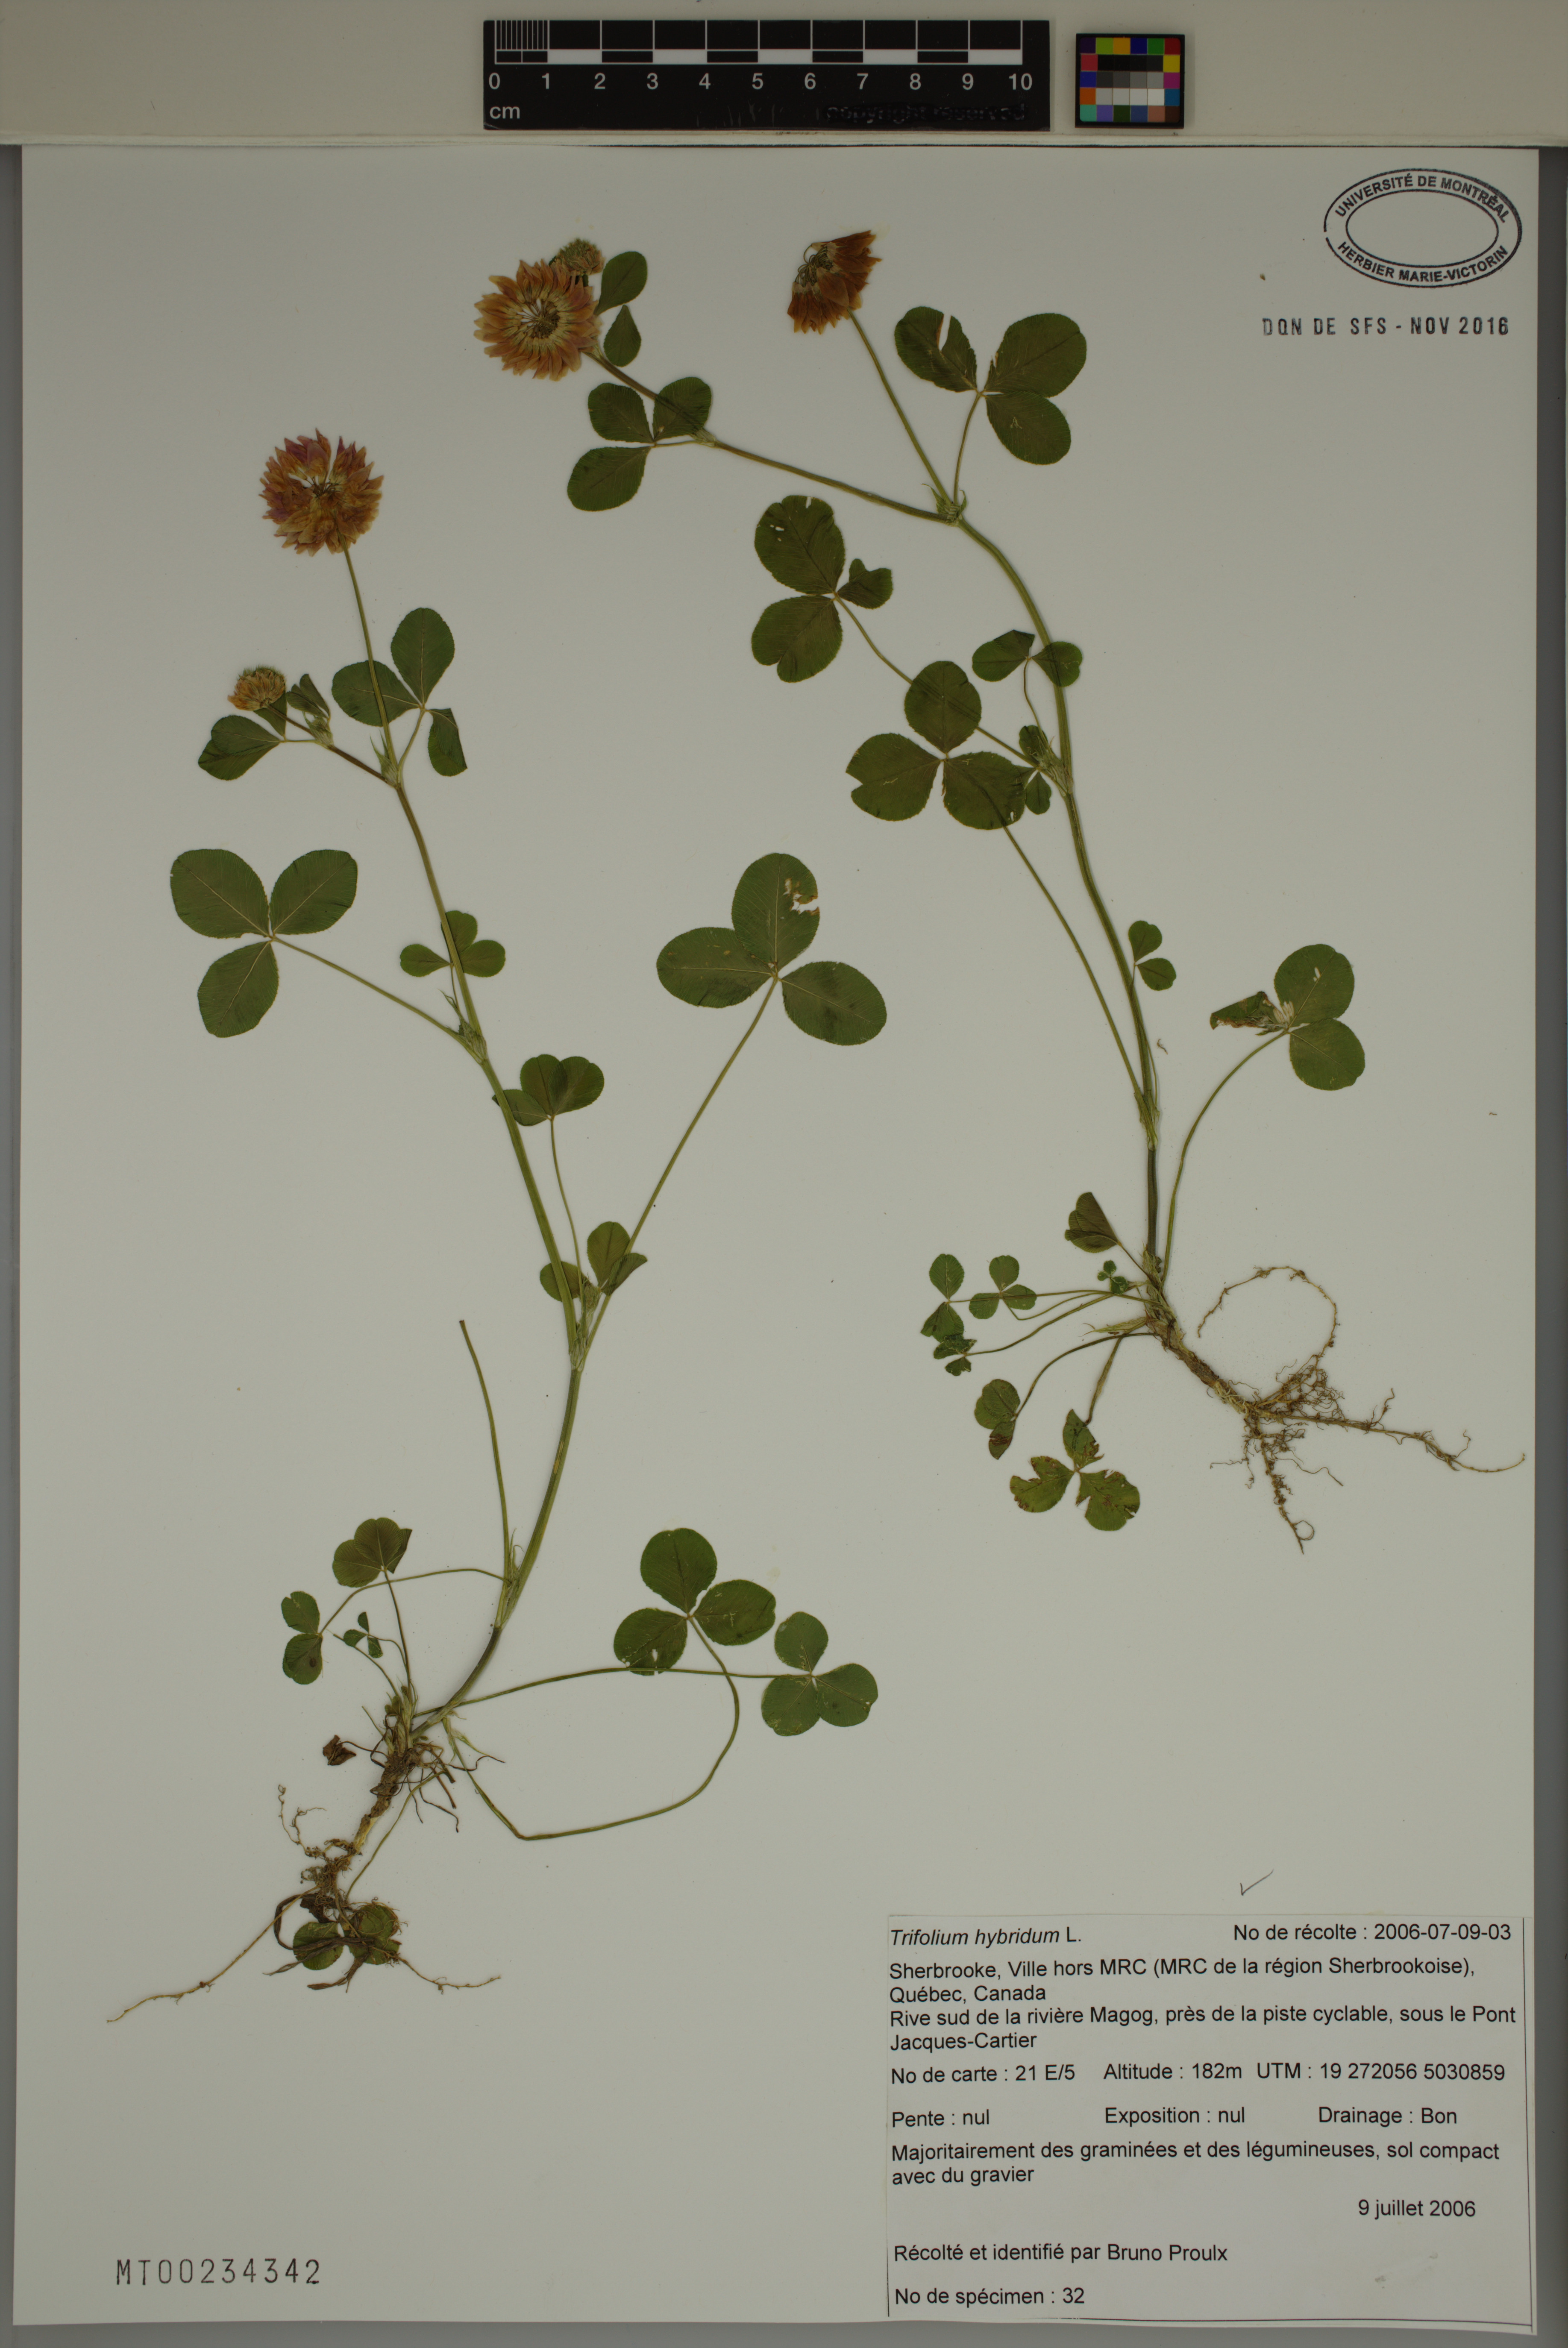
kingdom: Plantae
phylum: Tracheophyta
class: Magnoliopsida
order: Fabales
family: Fabaceae
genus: Trifolium
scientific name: Trifolium hybridum
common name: Alsike clover
